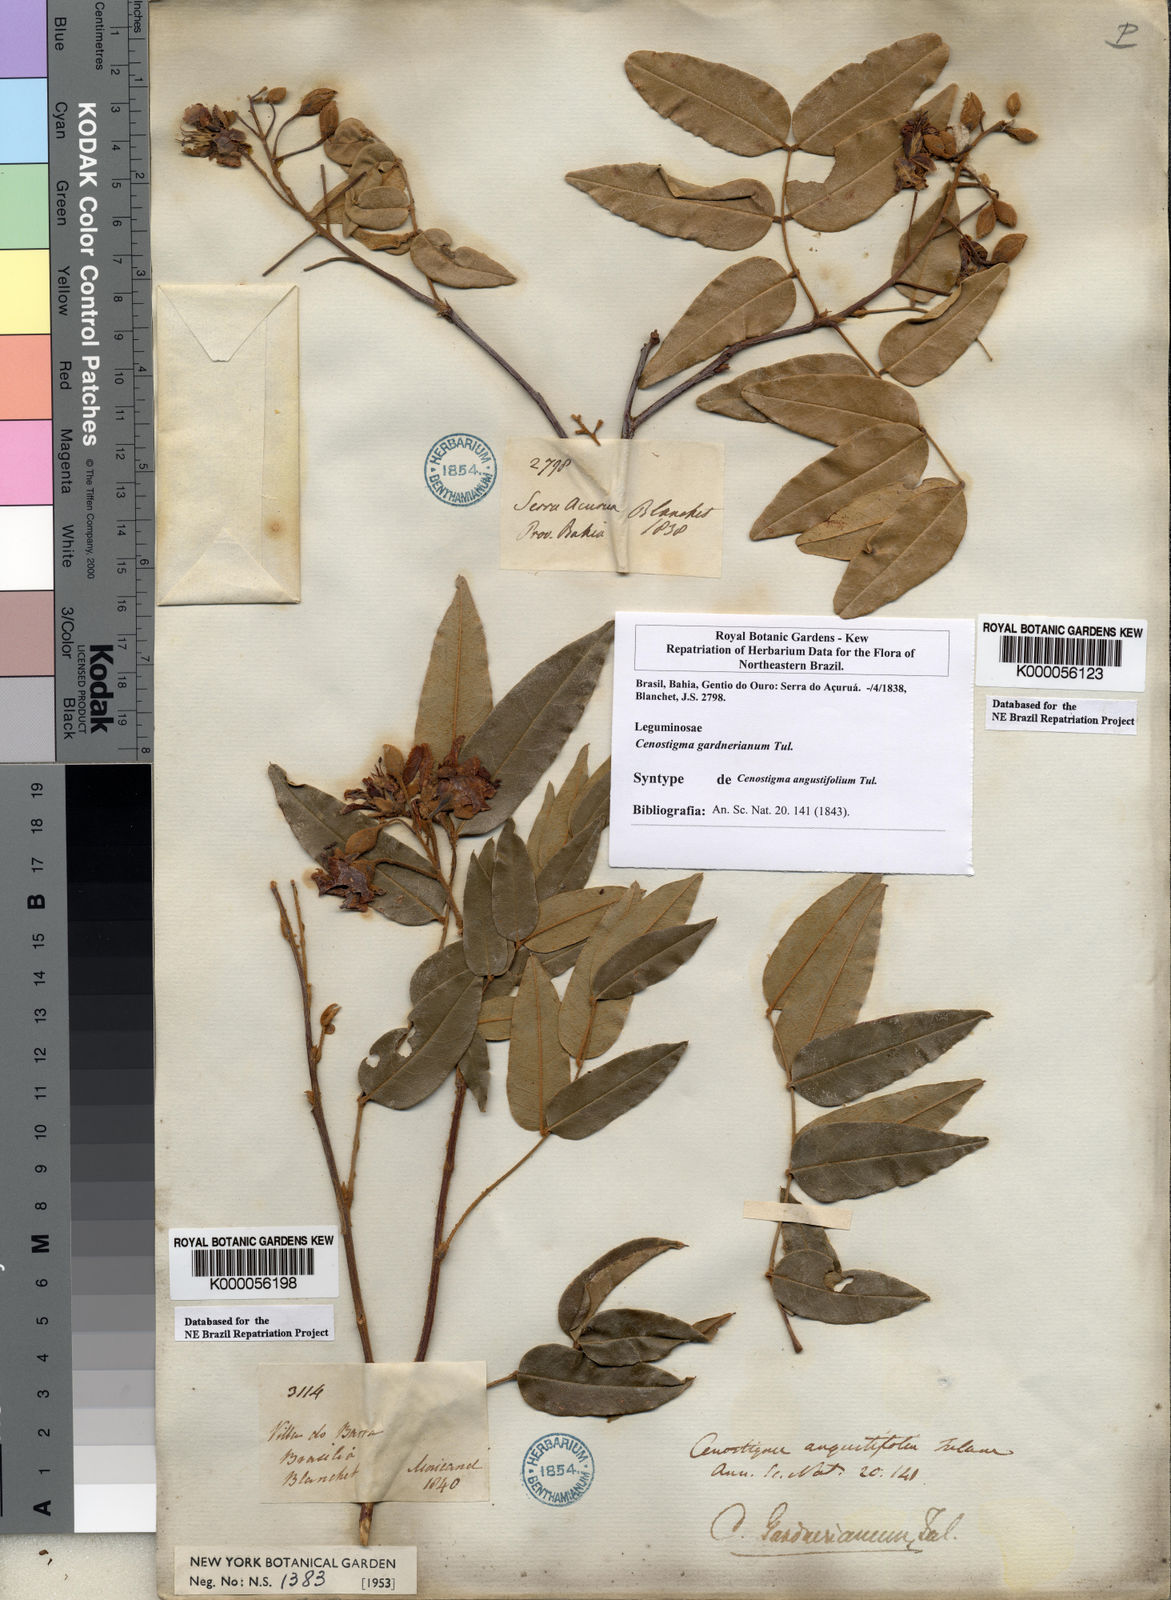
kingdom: Plantae
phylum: Tracheophyta
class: Magnoliopsida
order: Fabales
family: Fabaceae
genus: Cenostigma
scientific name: Cenostigma macrophyllum
